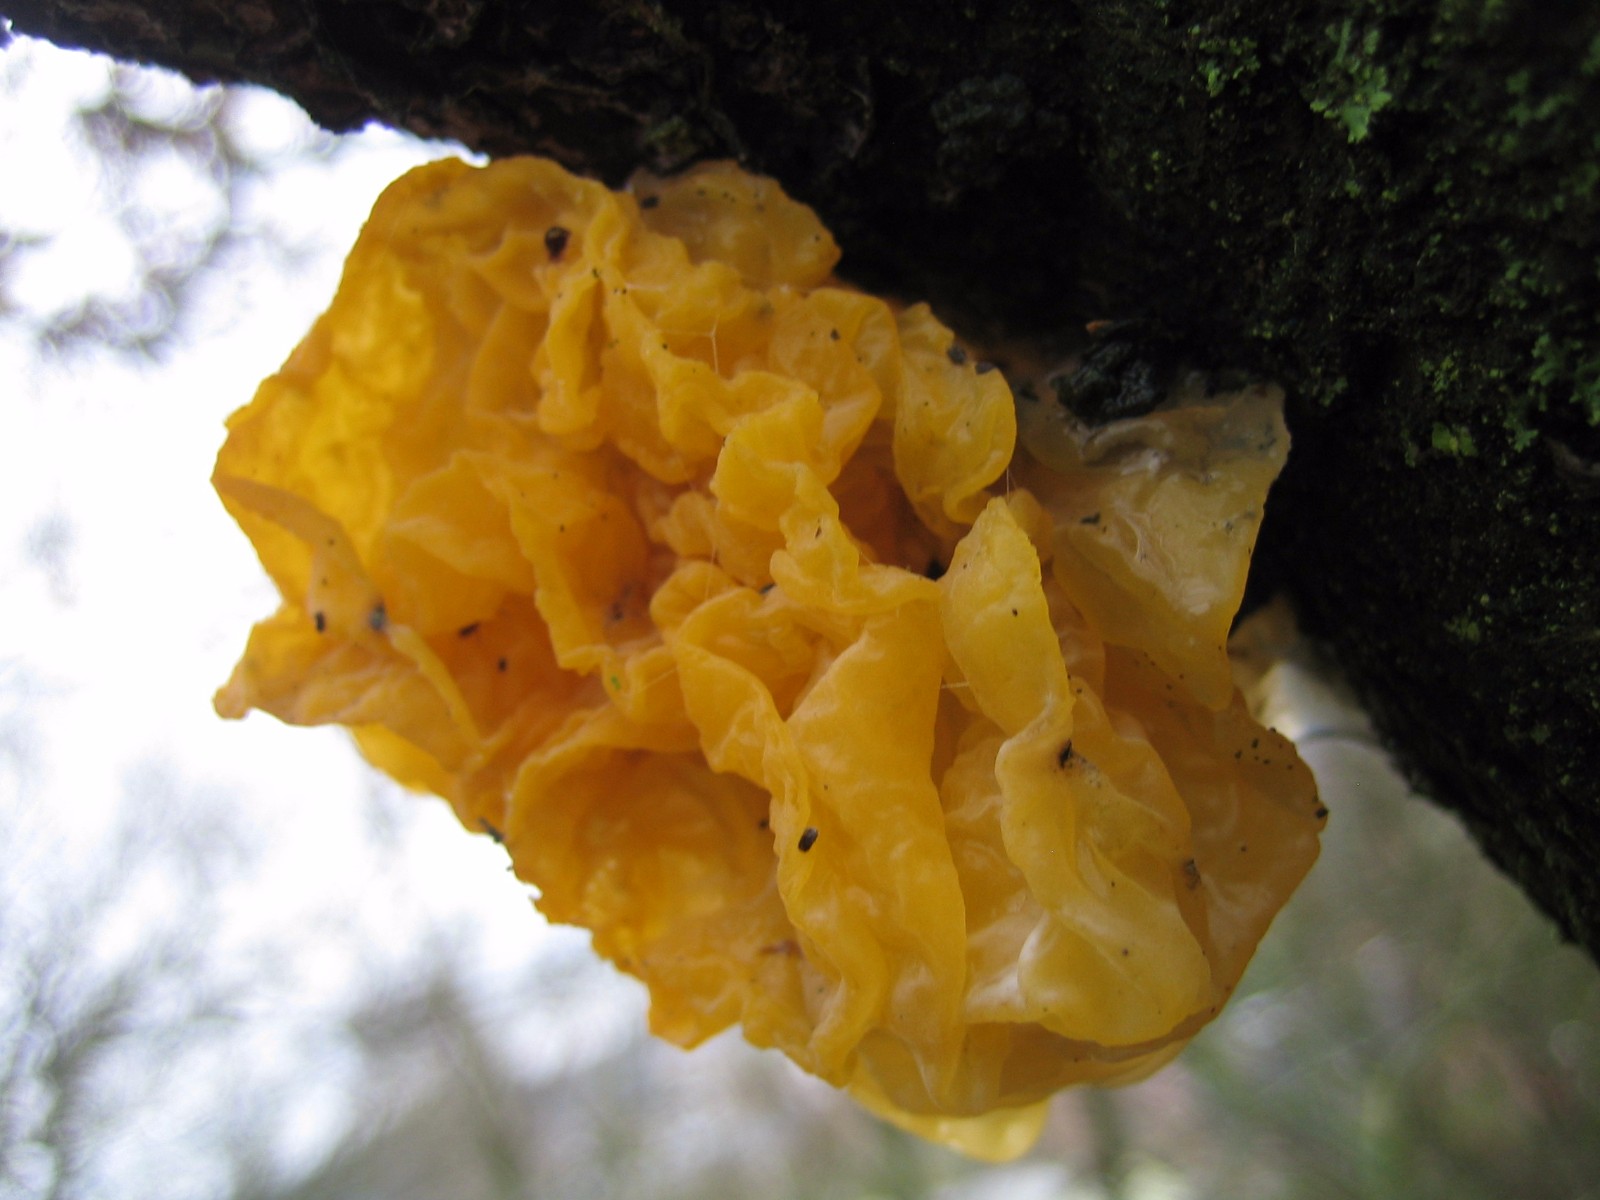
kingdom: Fungi
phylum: Basidiomycota
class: Tremellomycetes
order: Tremellales
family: Tremellaceae
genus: Tremella
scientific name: Tremella mesenterica
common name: gul bævresvamp
